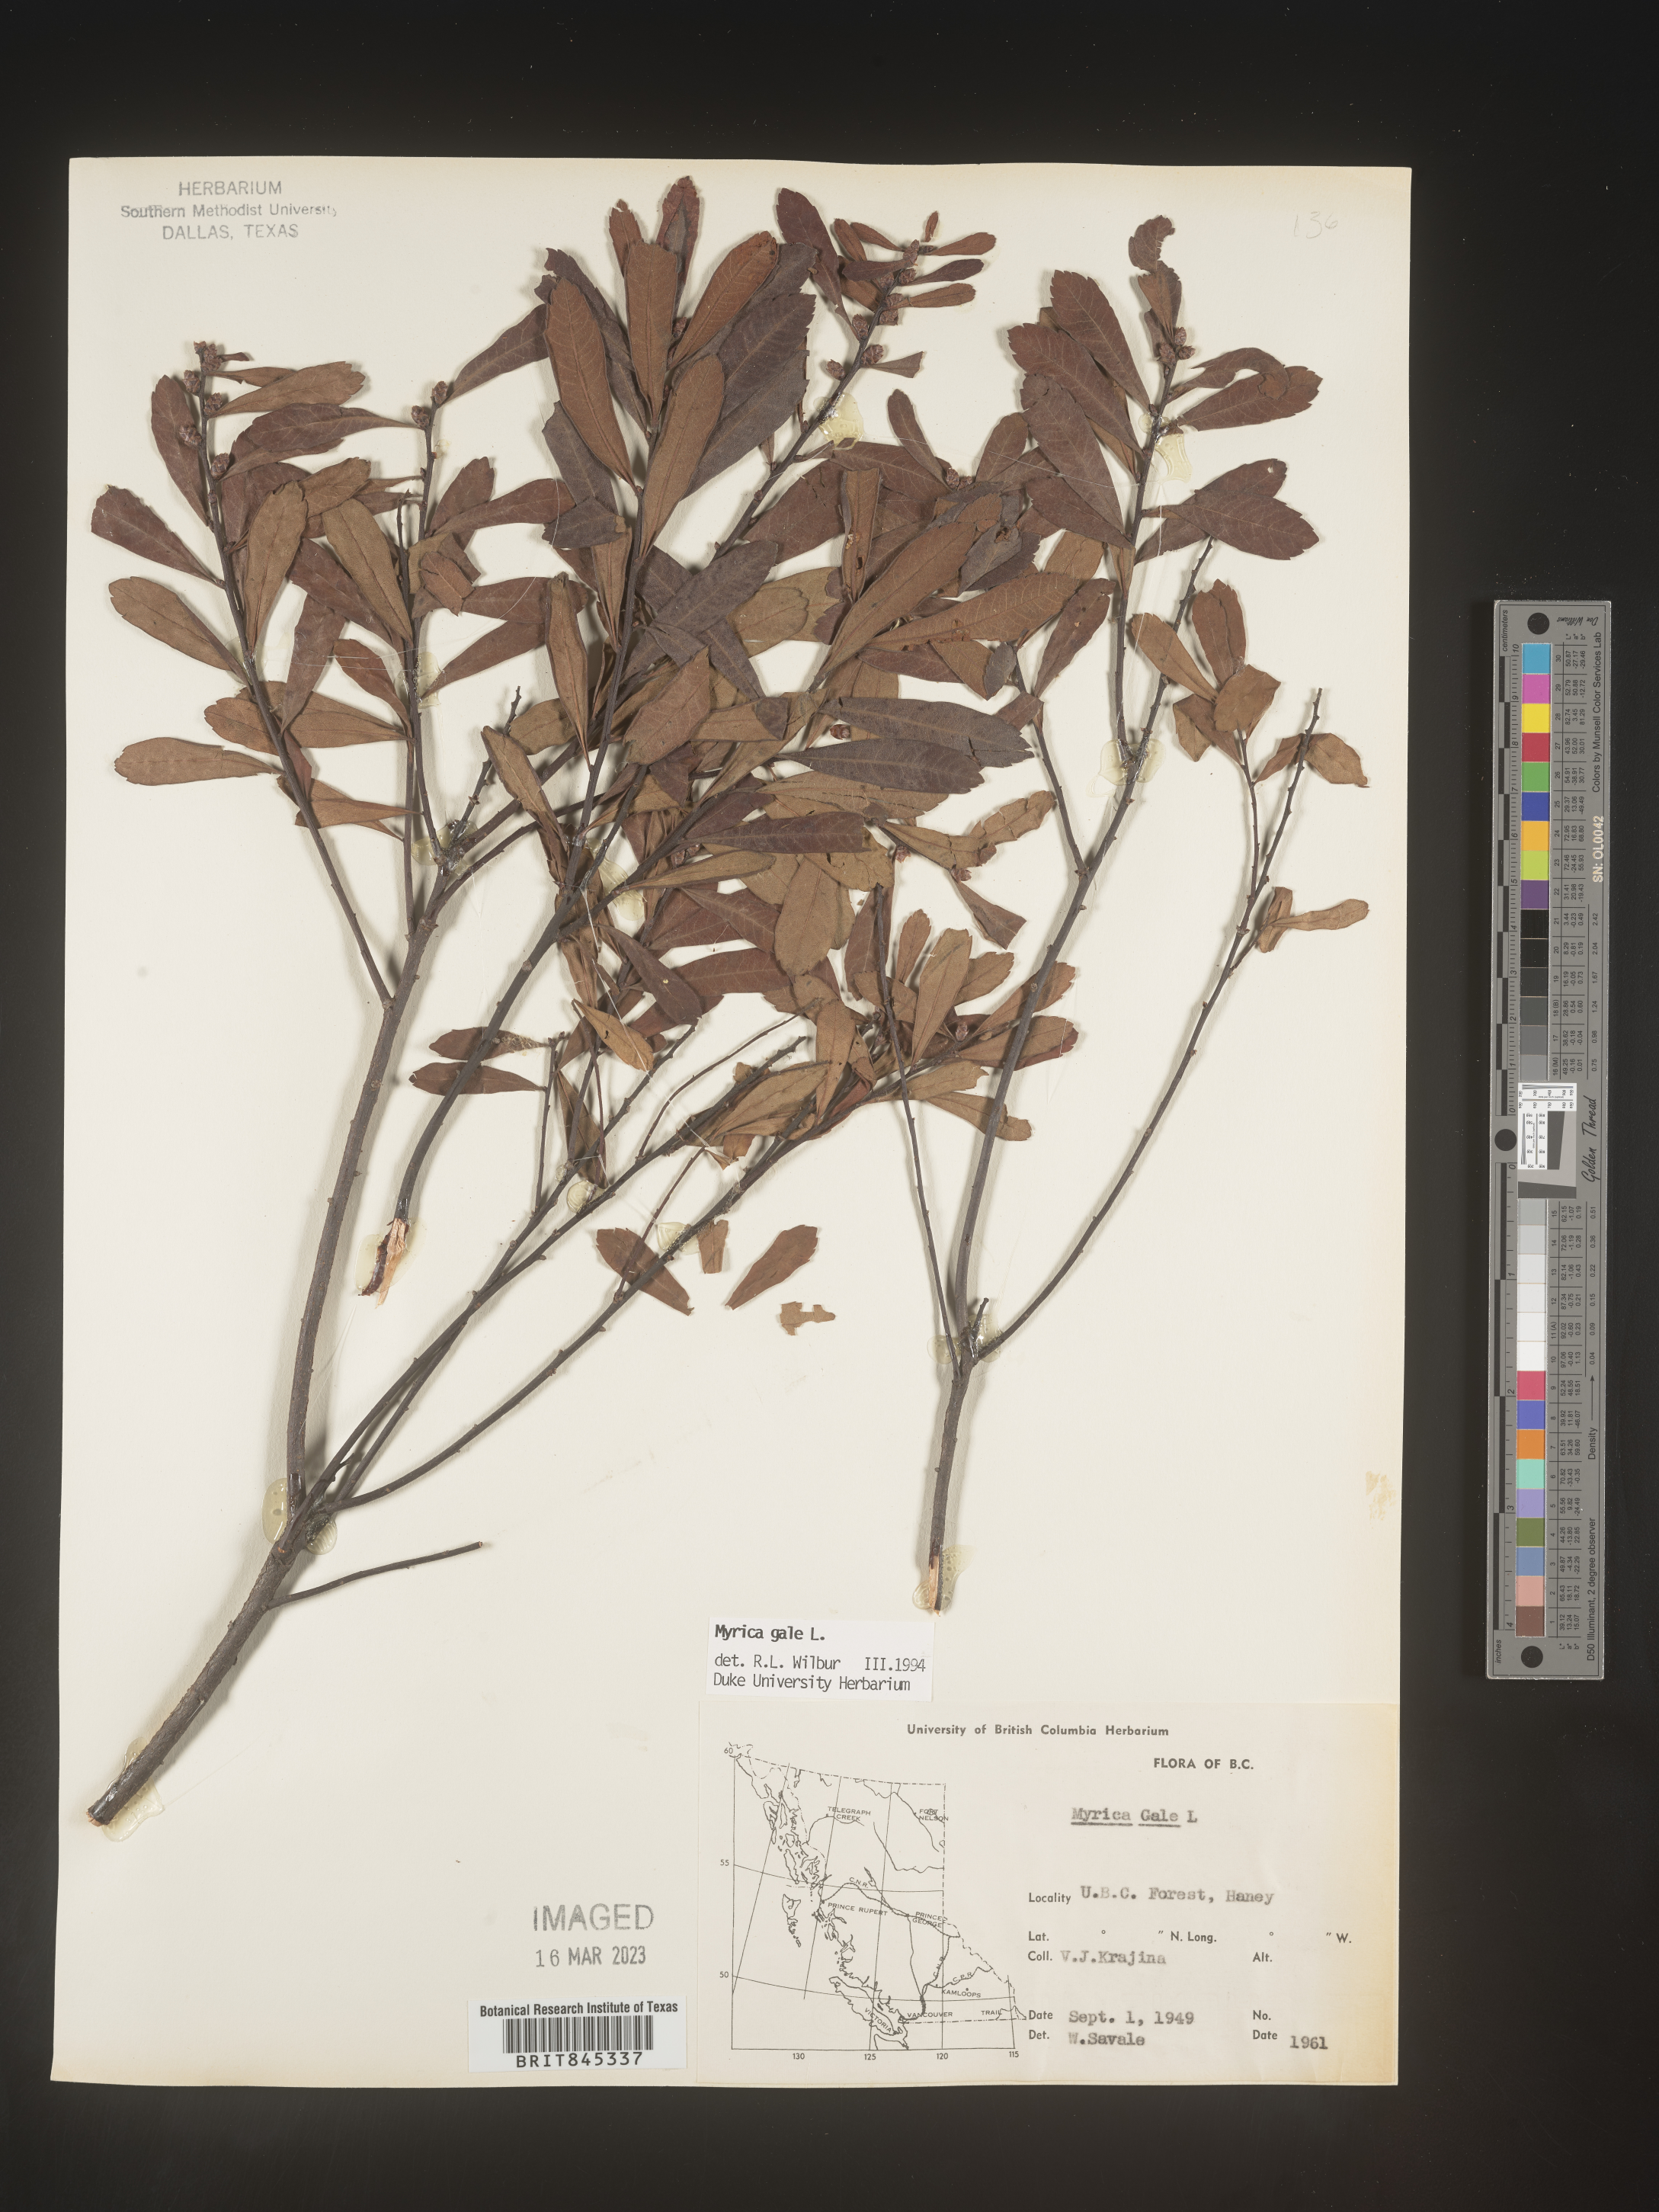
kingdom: Plantae
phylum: Tracheophyta
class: Magnoliopsida
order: Fagales
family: Myricaceae
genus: Myrica
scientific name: Myrica gale
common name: Sweet gale
